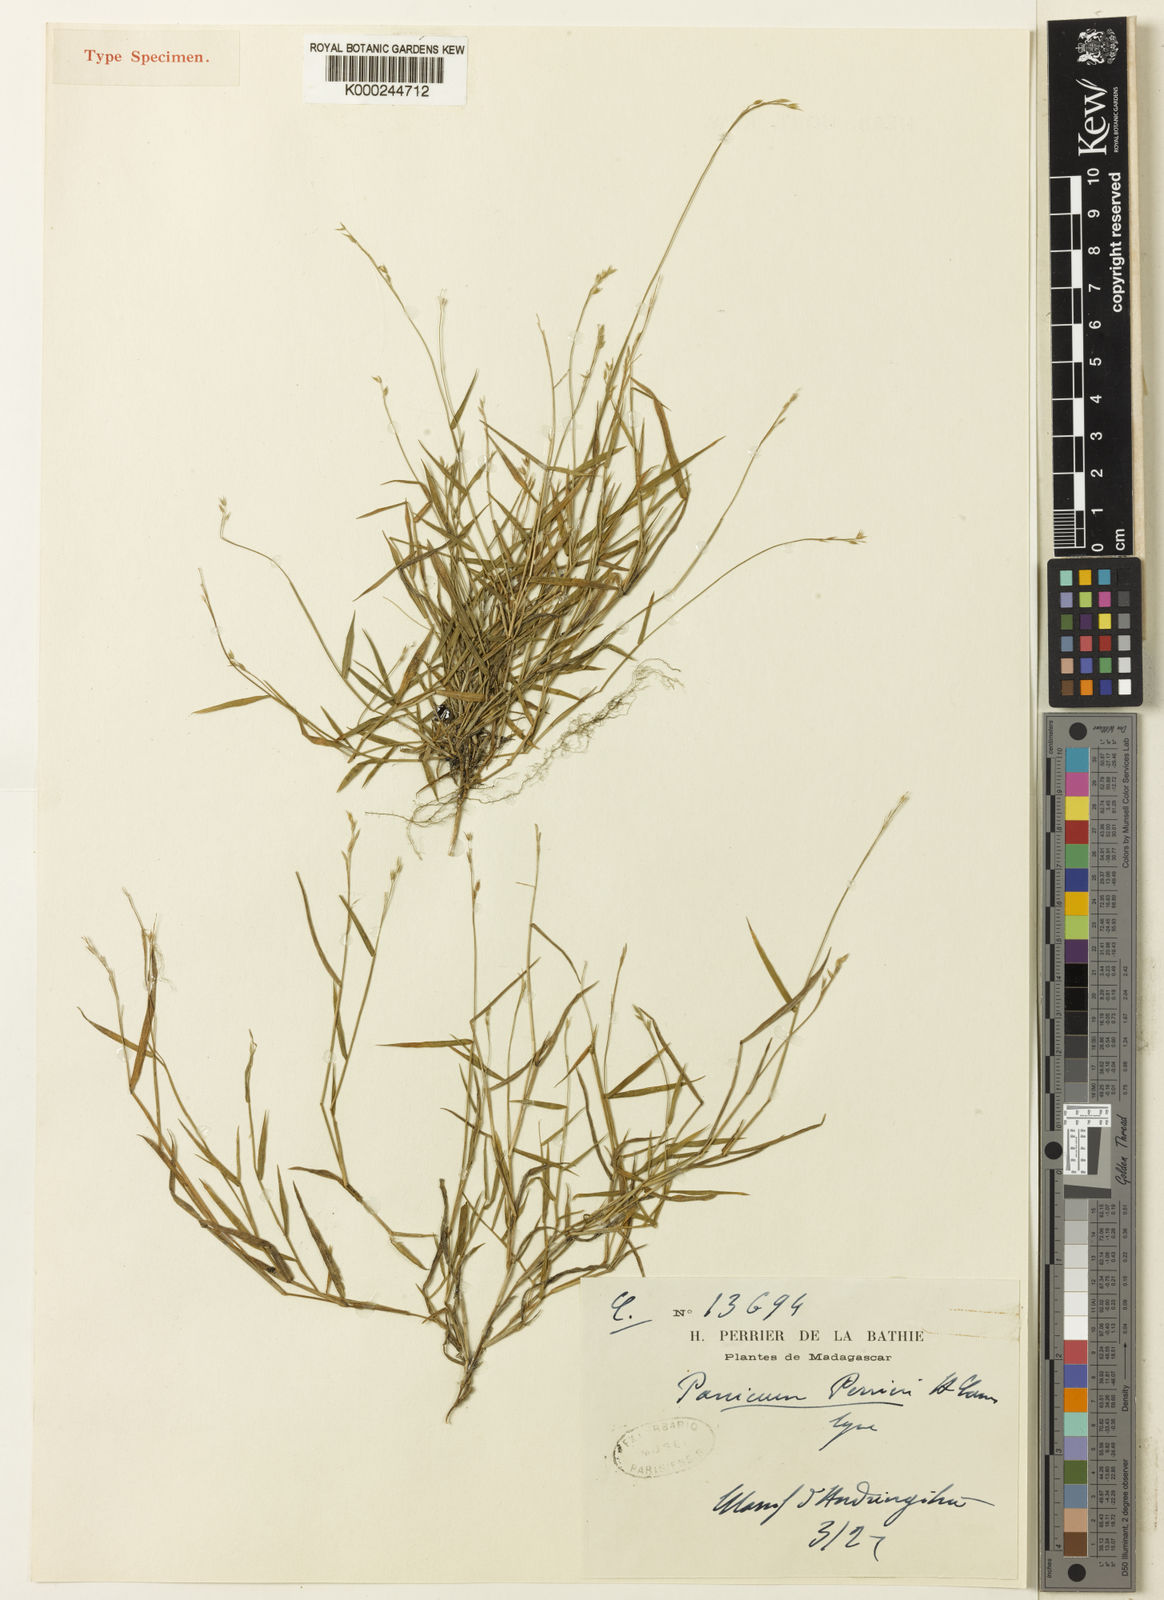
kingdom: Plantae
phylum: Tracheophyta
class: Liliopsida
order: Poales
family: Poaceae
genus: Panicum
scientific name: Panicum perrieri
